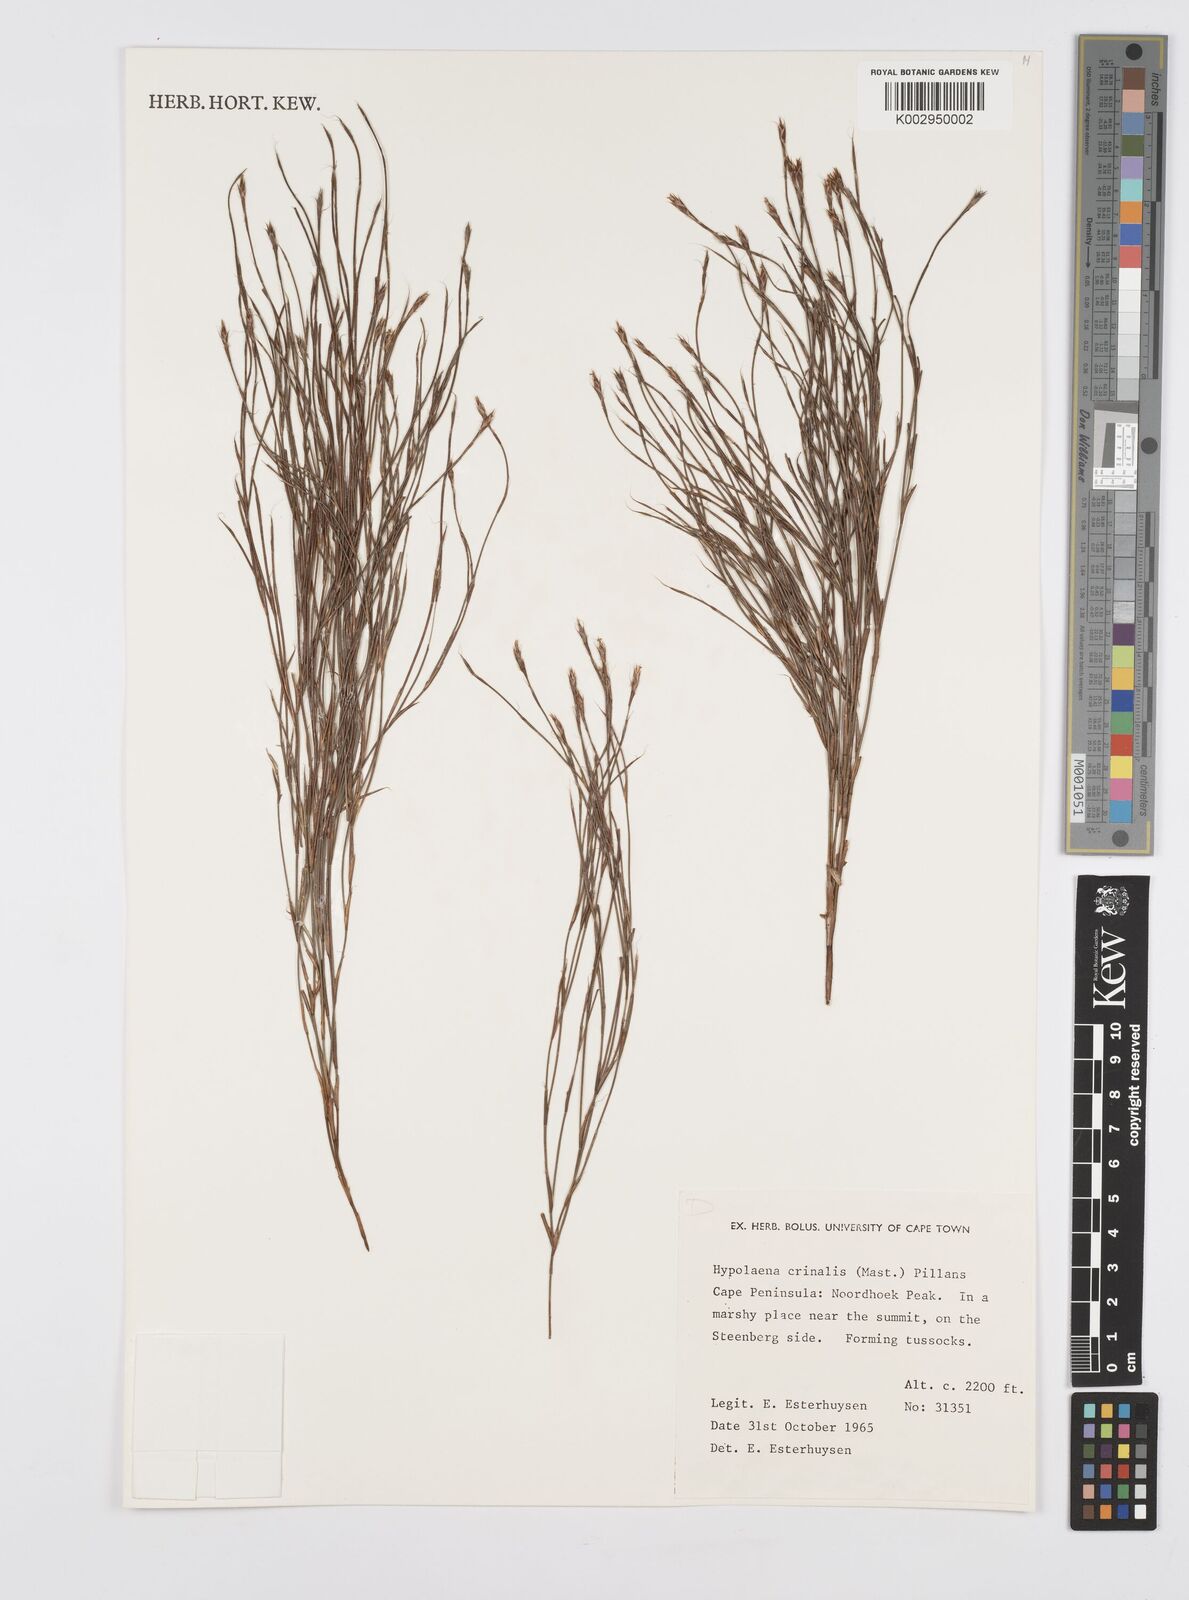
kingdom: Plantae
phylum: Tracheophyta
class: Liliopsida
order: Poales
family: Restionaceae
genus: Anthochortus
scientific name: Anthochortus crinalis
